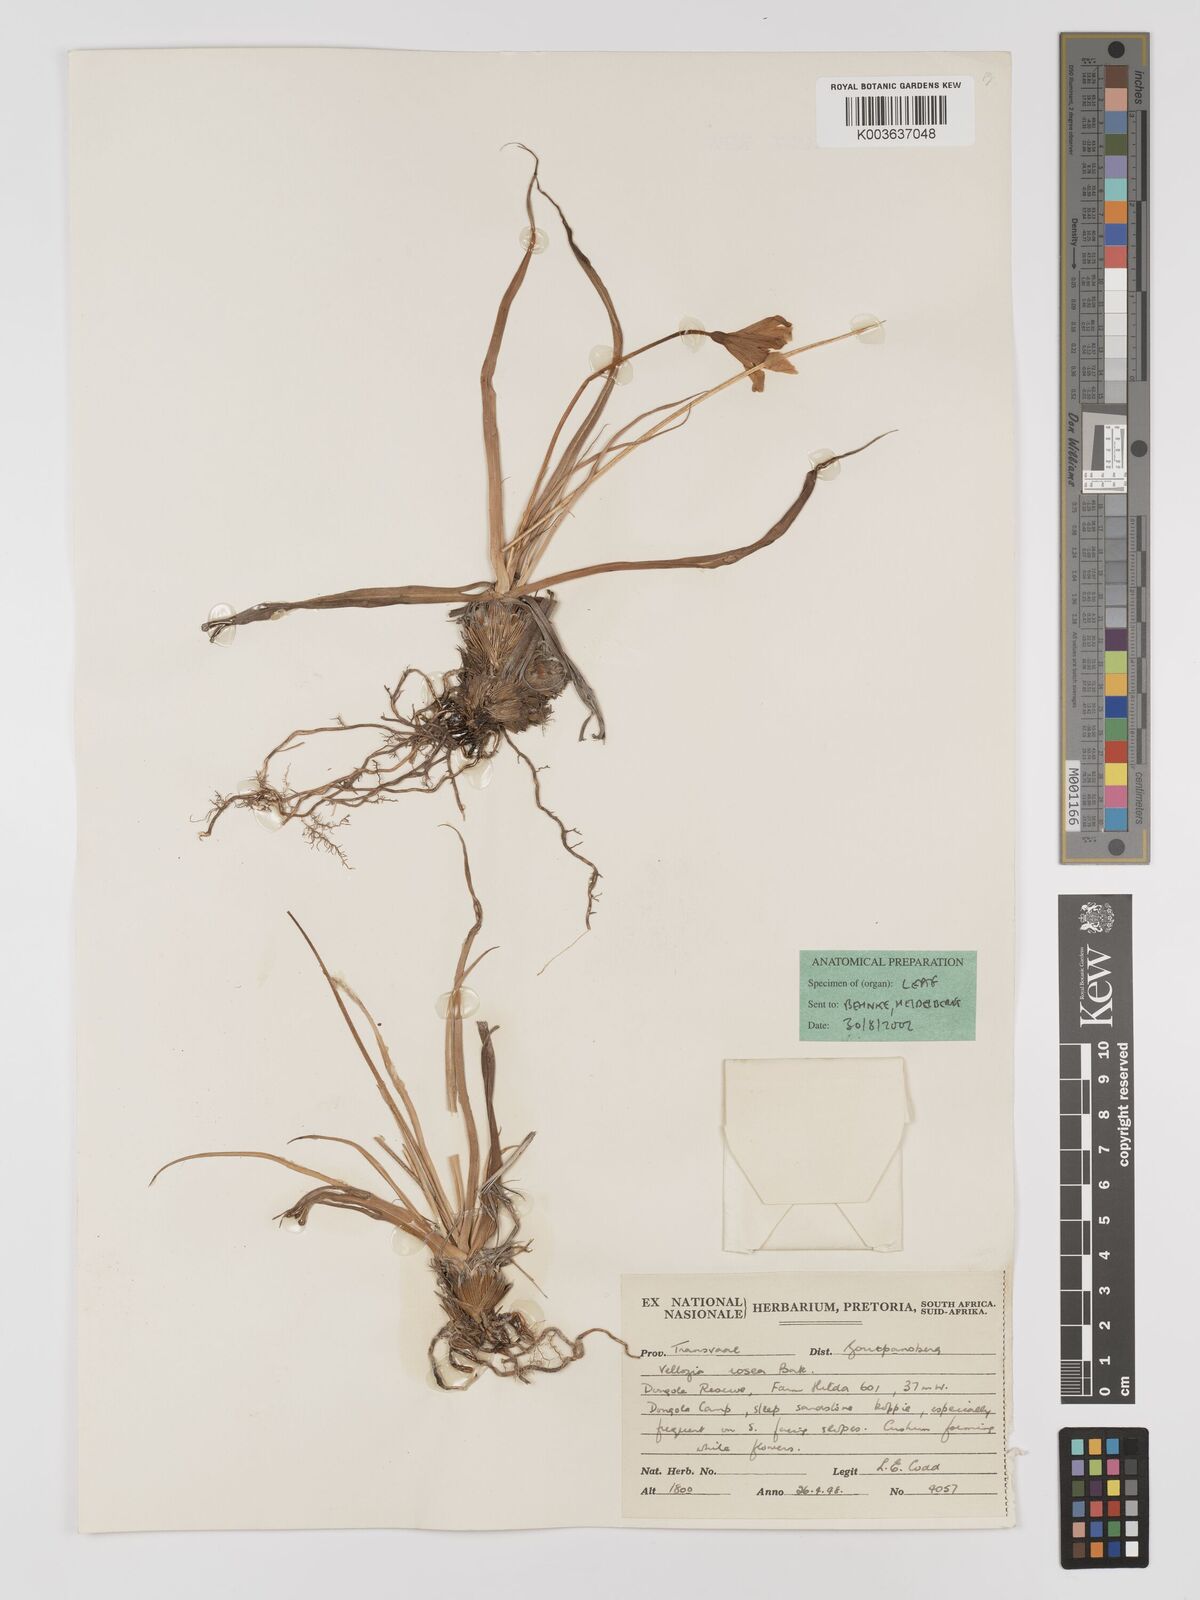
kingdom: Plantae
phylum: Tracheophyta
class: Liliopsida
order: Pandanales
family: Velloziaceae
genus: Xerophyta
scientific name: Xerophyta rosea
